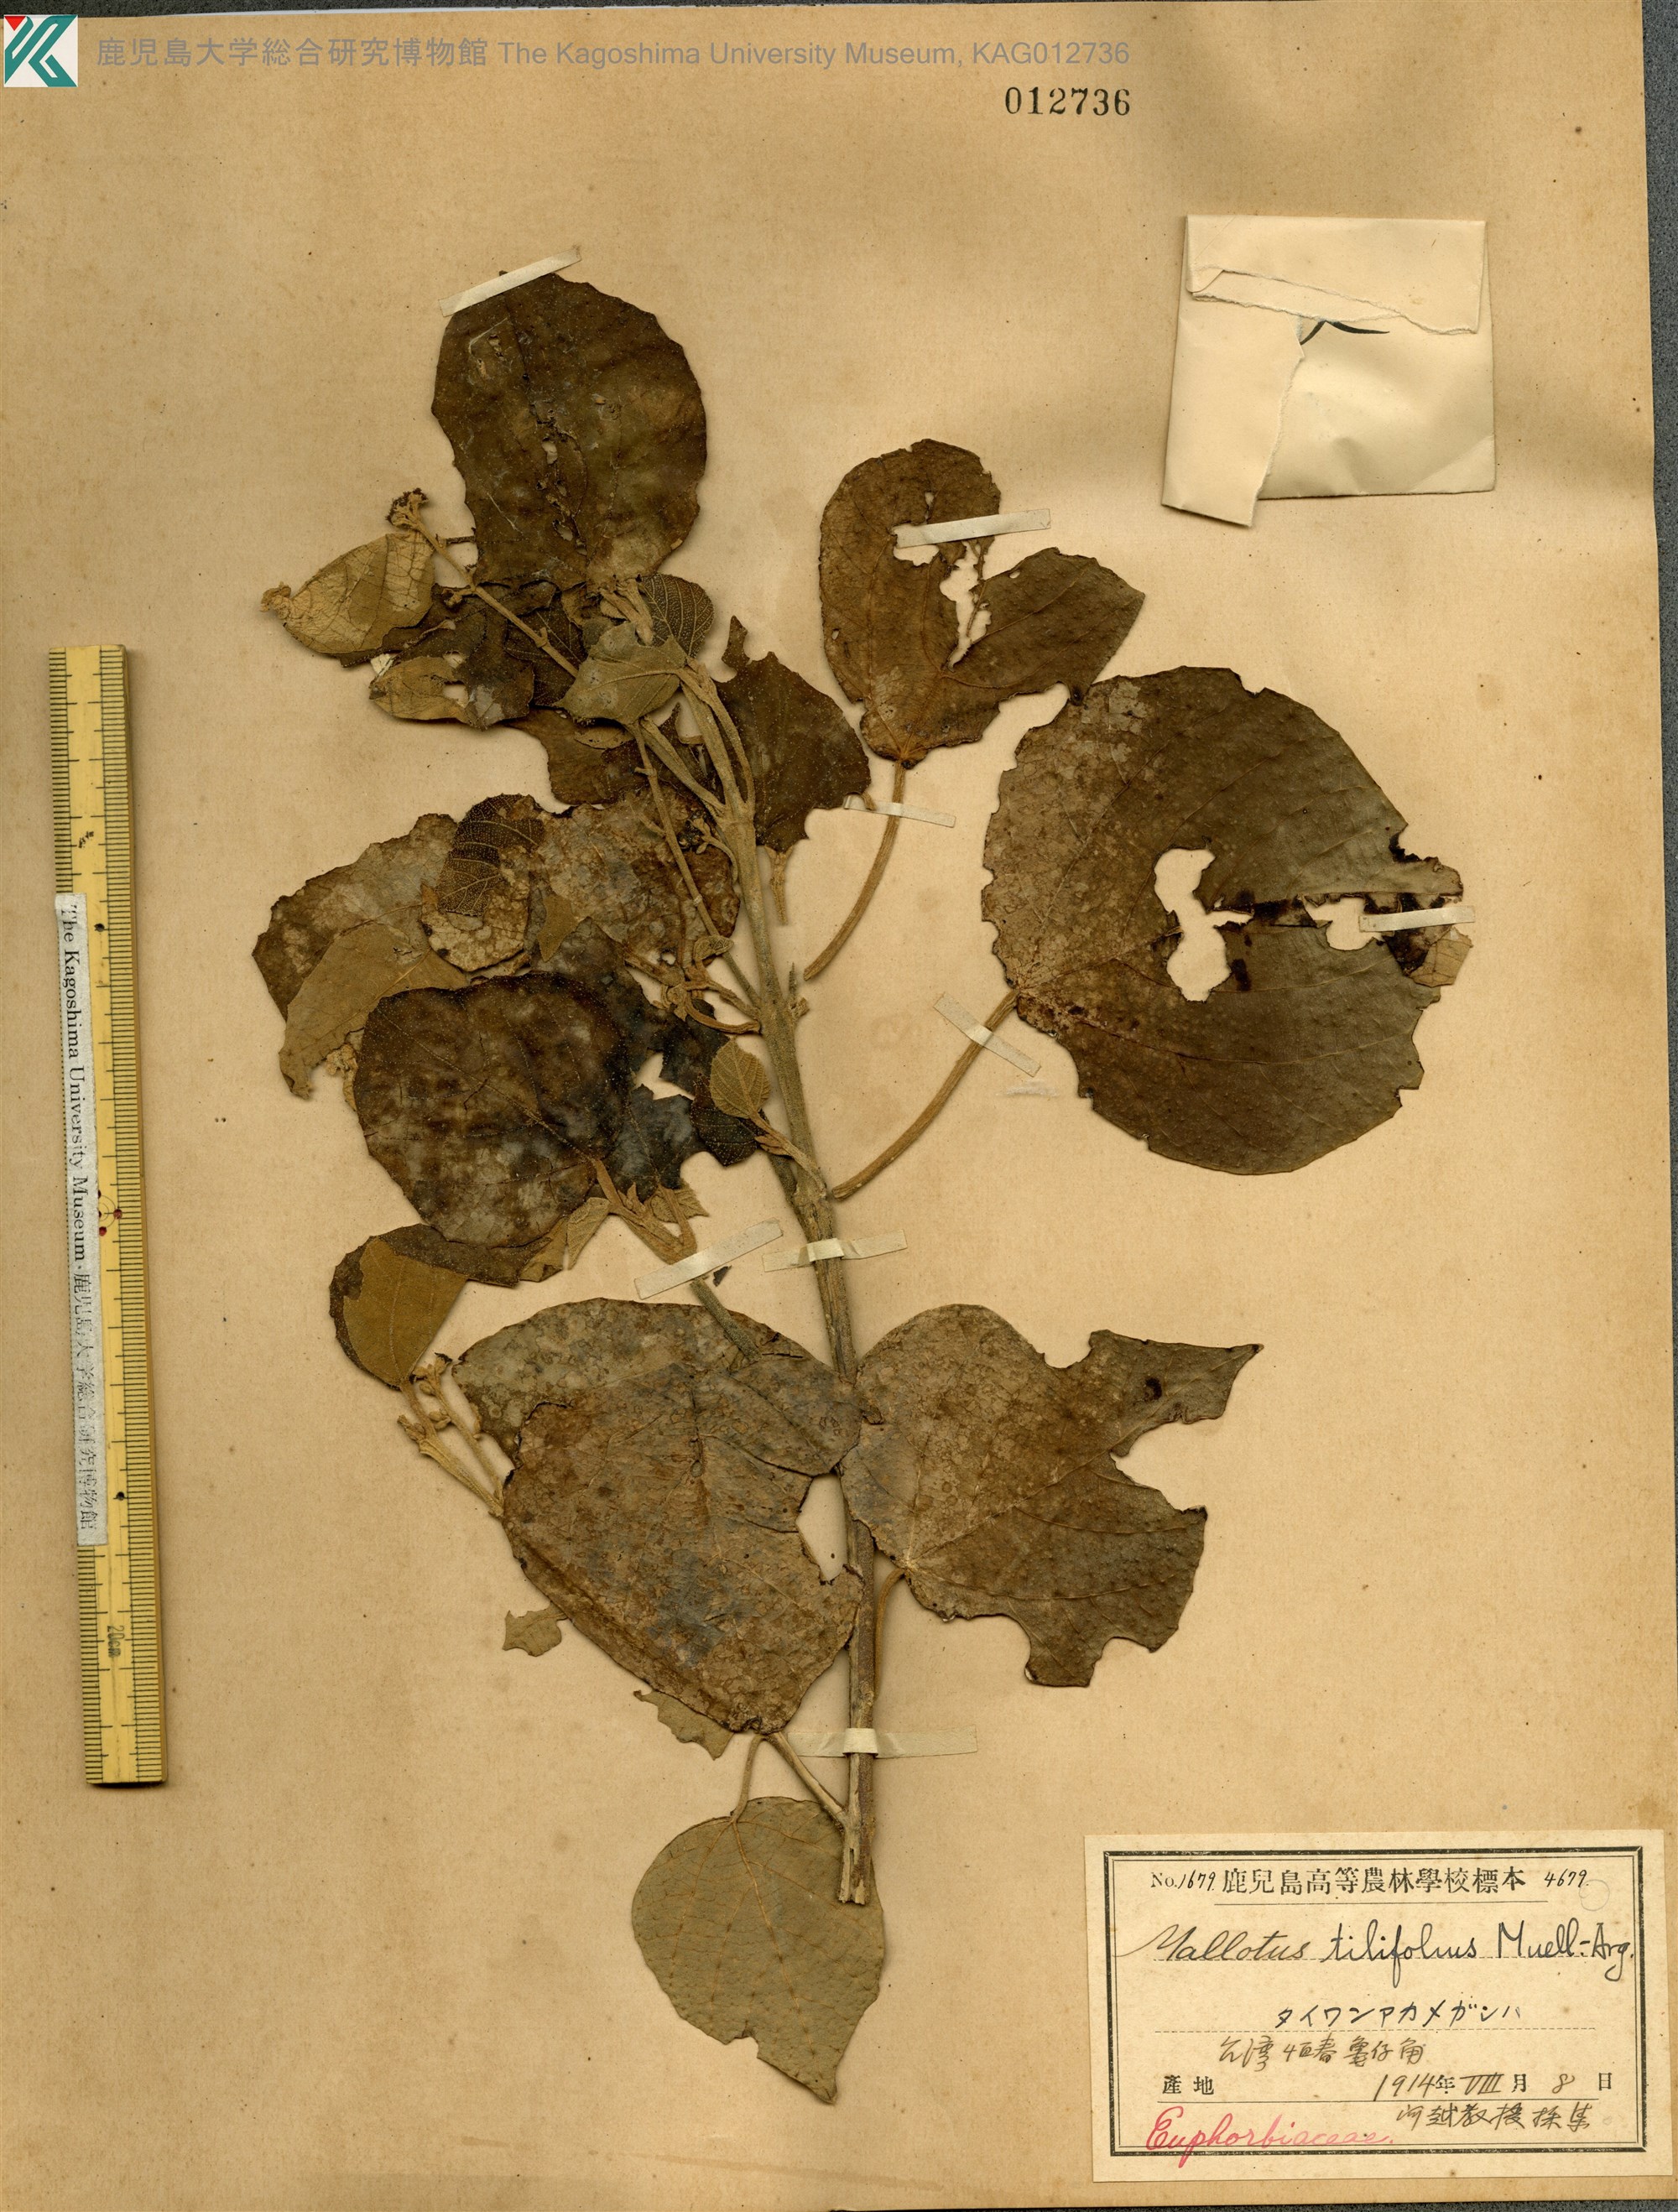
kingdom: Plantae
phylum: Tracheophyta
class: Magnoliopsida
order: Malpighiales
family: Euphorbiaceae
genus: Mallotus
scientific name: Mallotus tiliifolius
